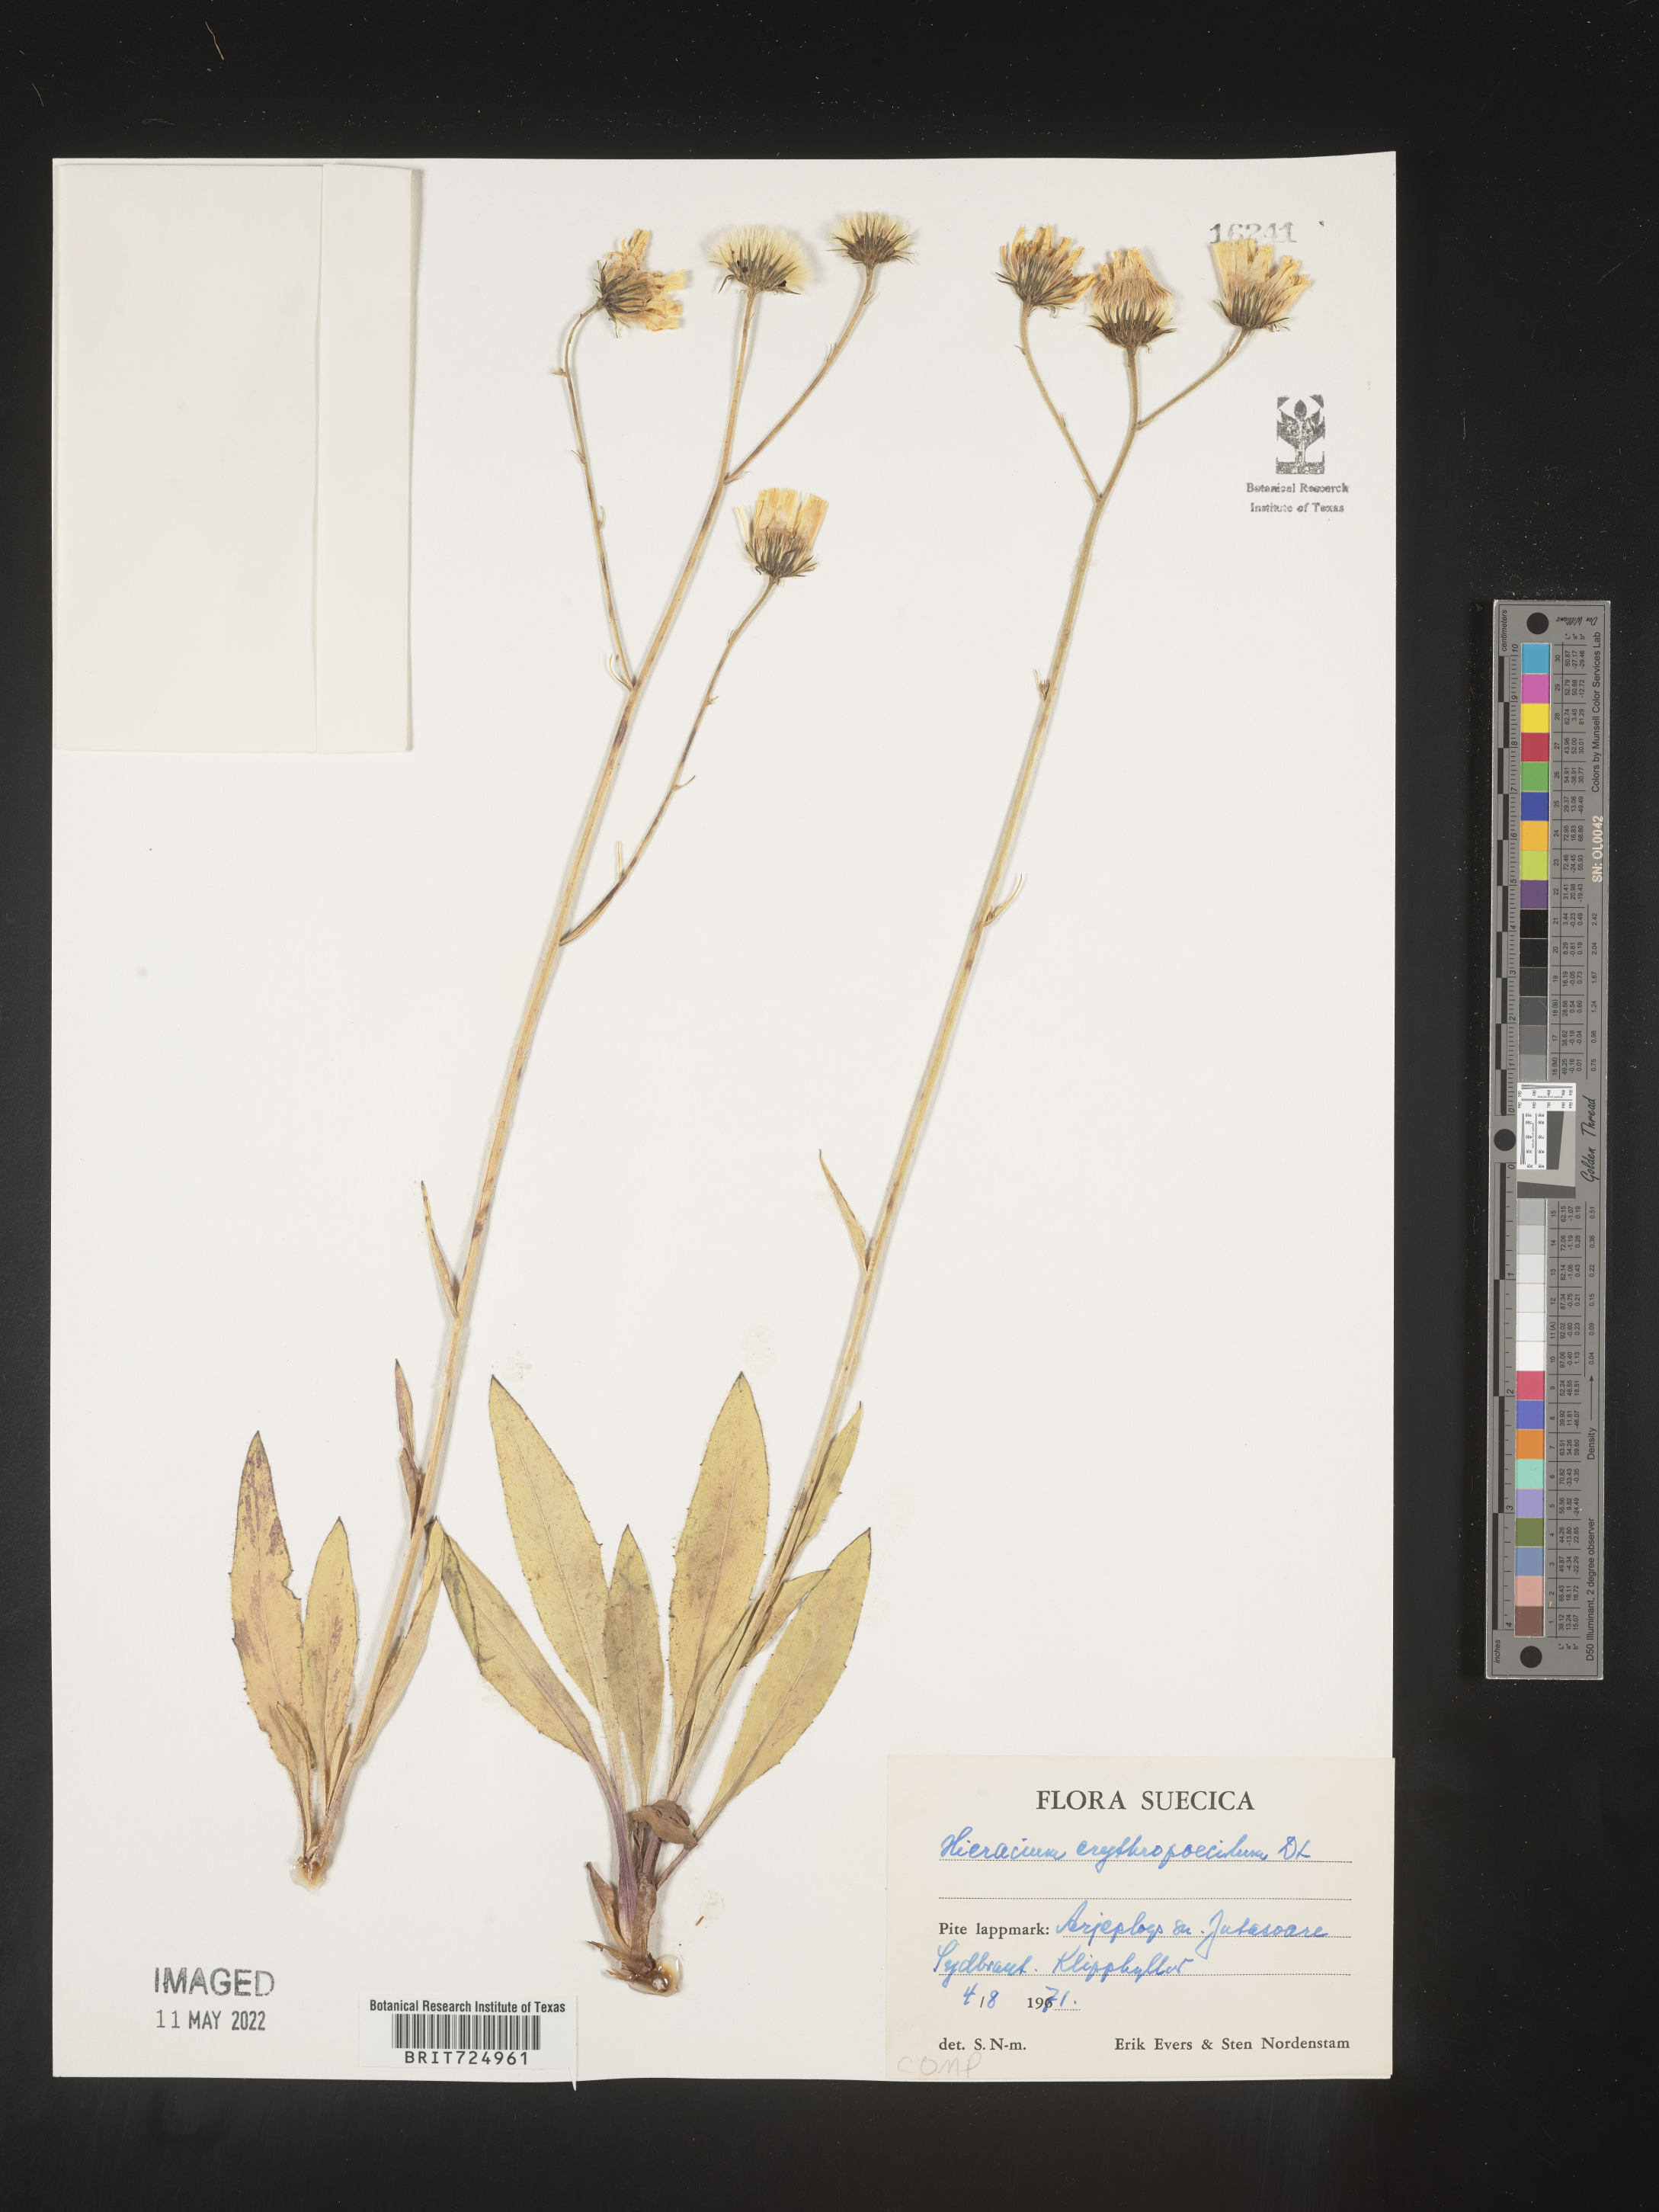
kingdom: Plantae
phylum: Tracheophyta
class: Magnoliopsida
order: Asterales
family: Asteraceae
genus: Hieracium
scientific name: Hieracium
